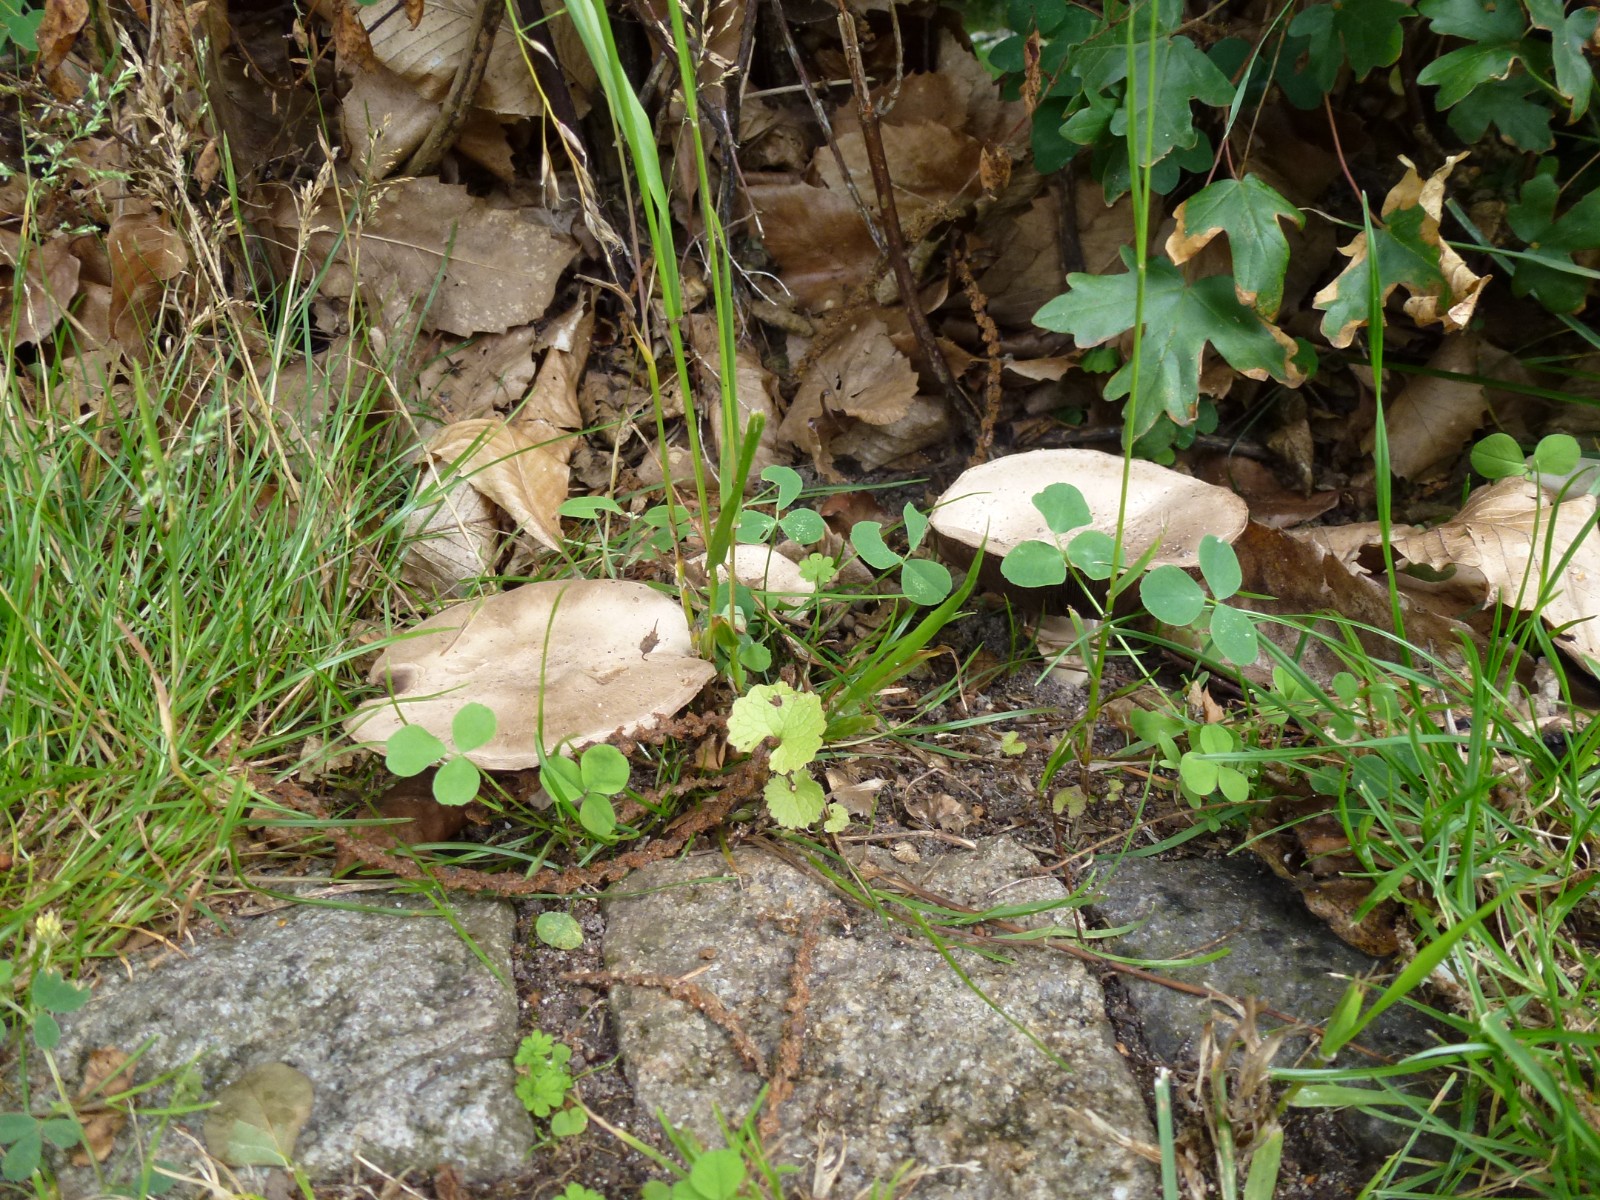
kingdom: Fungi
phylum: Basidiomycota
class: Agaricomycetes
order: Agaricales
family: Agaricaceae
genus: Agaricus
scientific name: Agaricus
